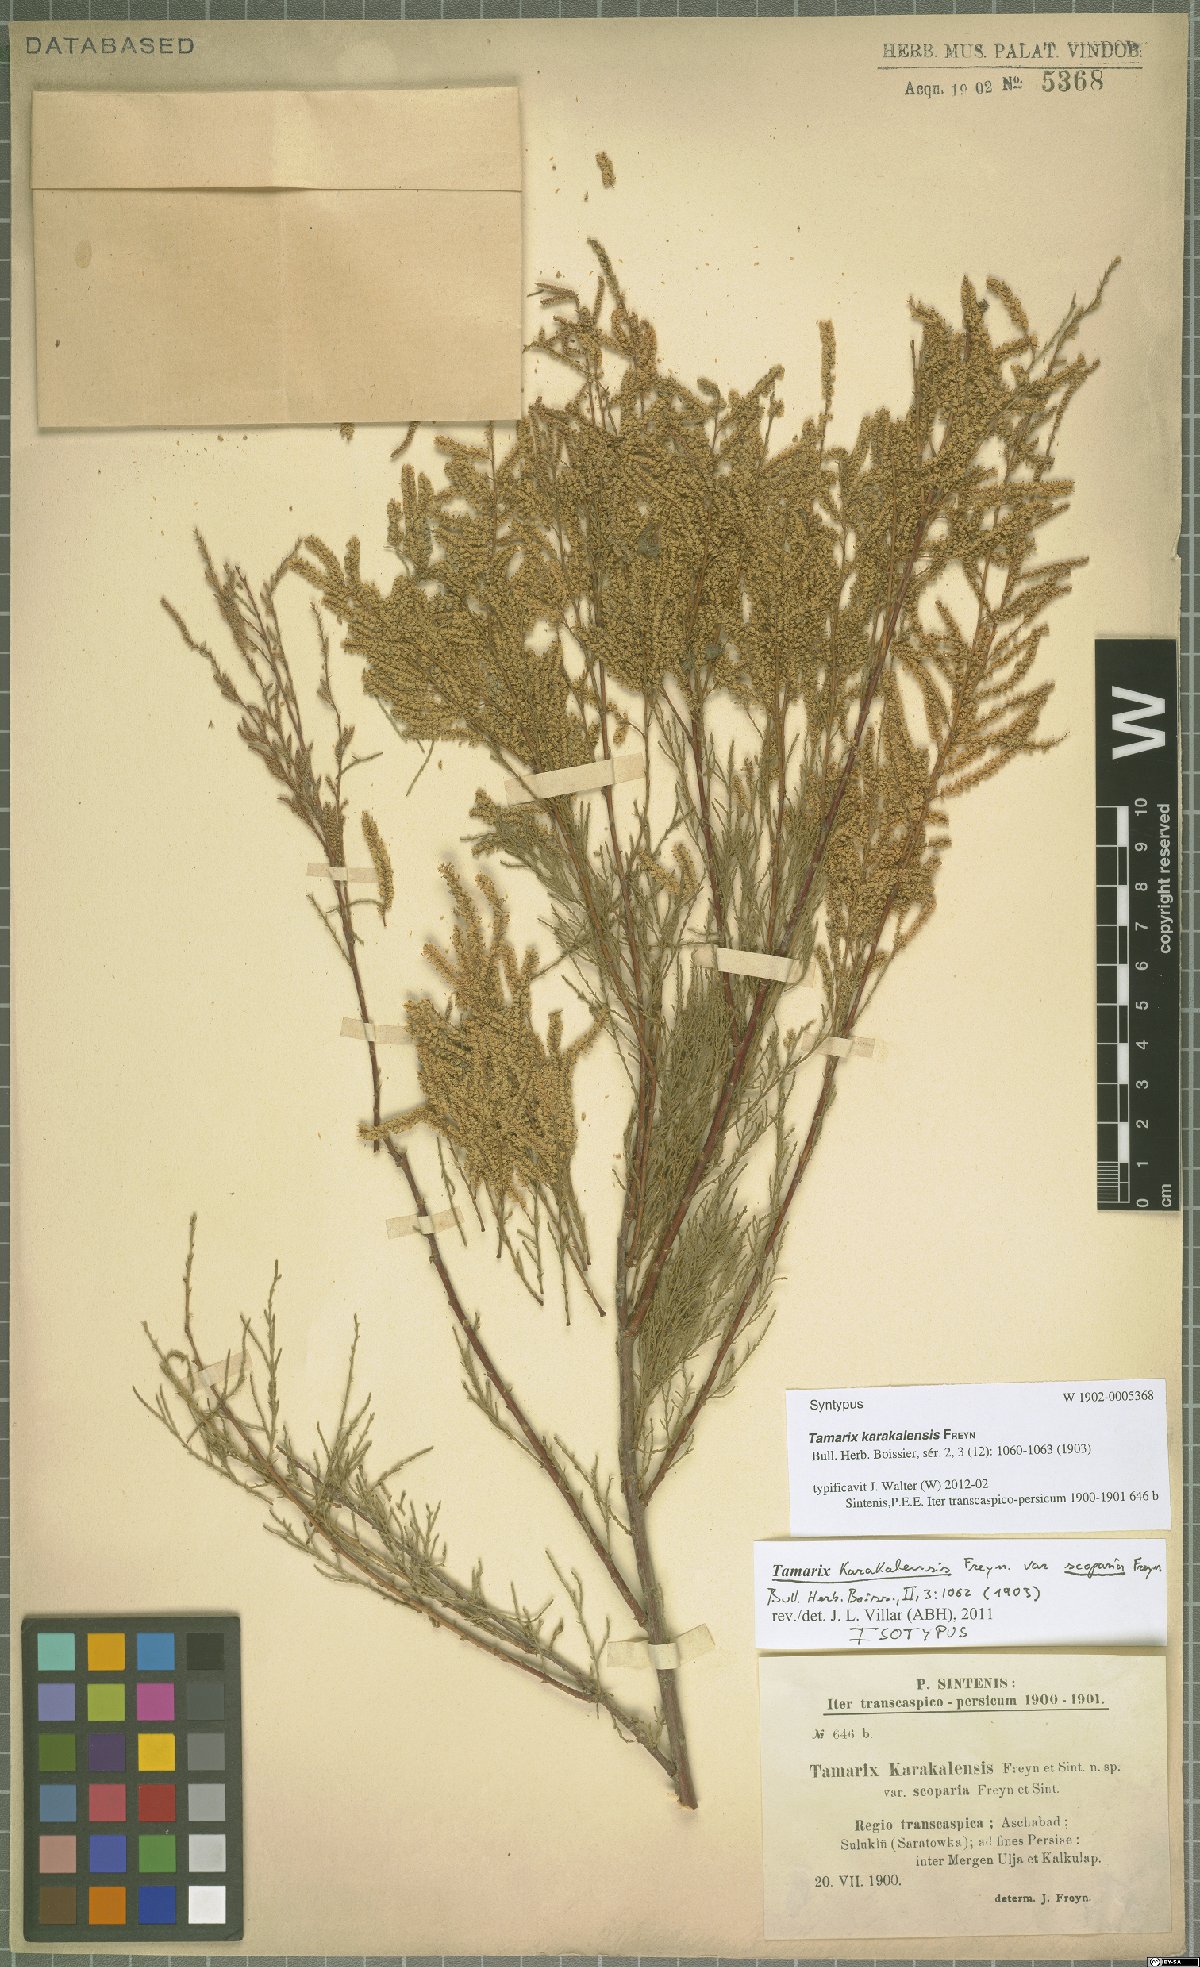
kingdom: Plantae
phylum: Tracheophyta
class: Magnoliopsida
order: Caryophyllales
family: Tamaricaceae
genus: Tamarix
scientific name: Tamarix florida
